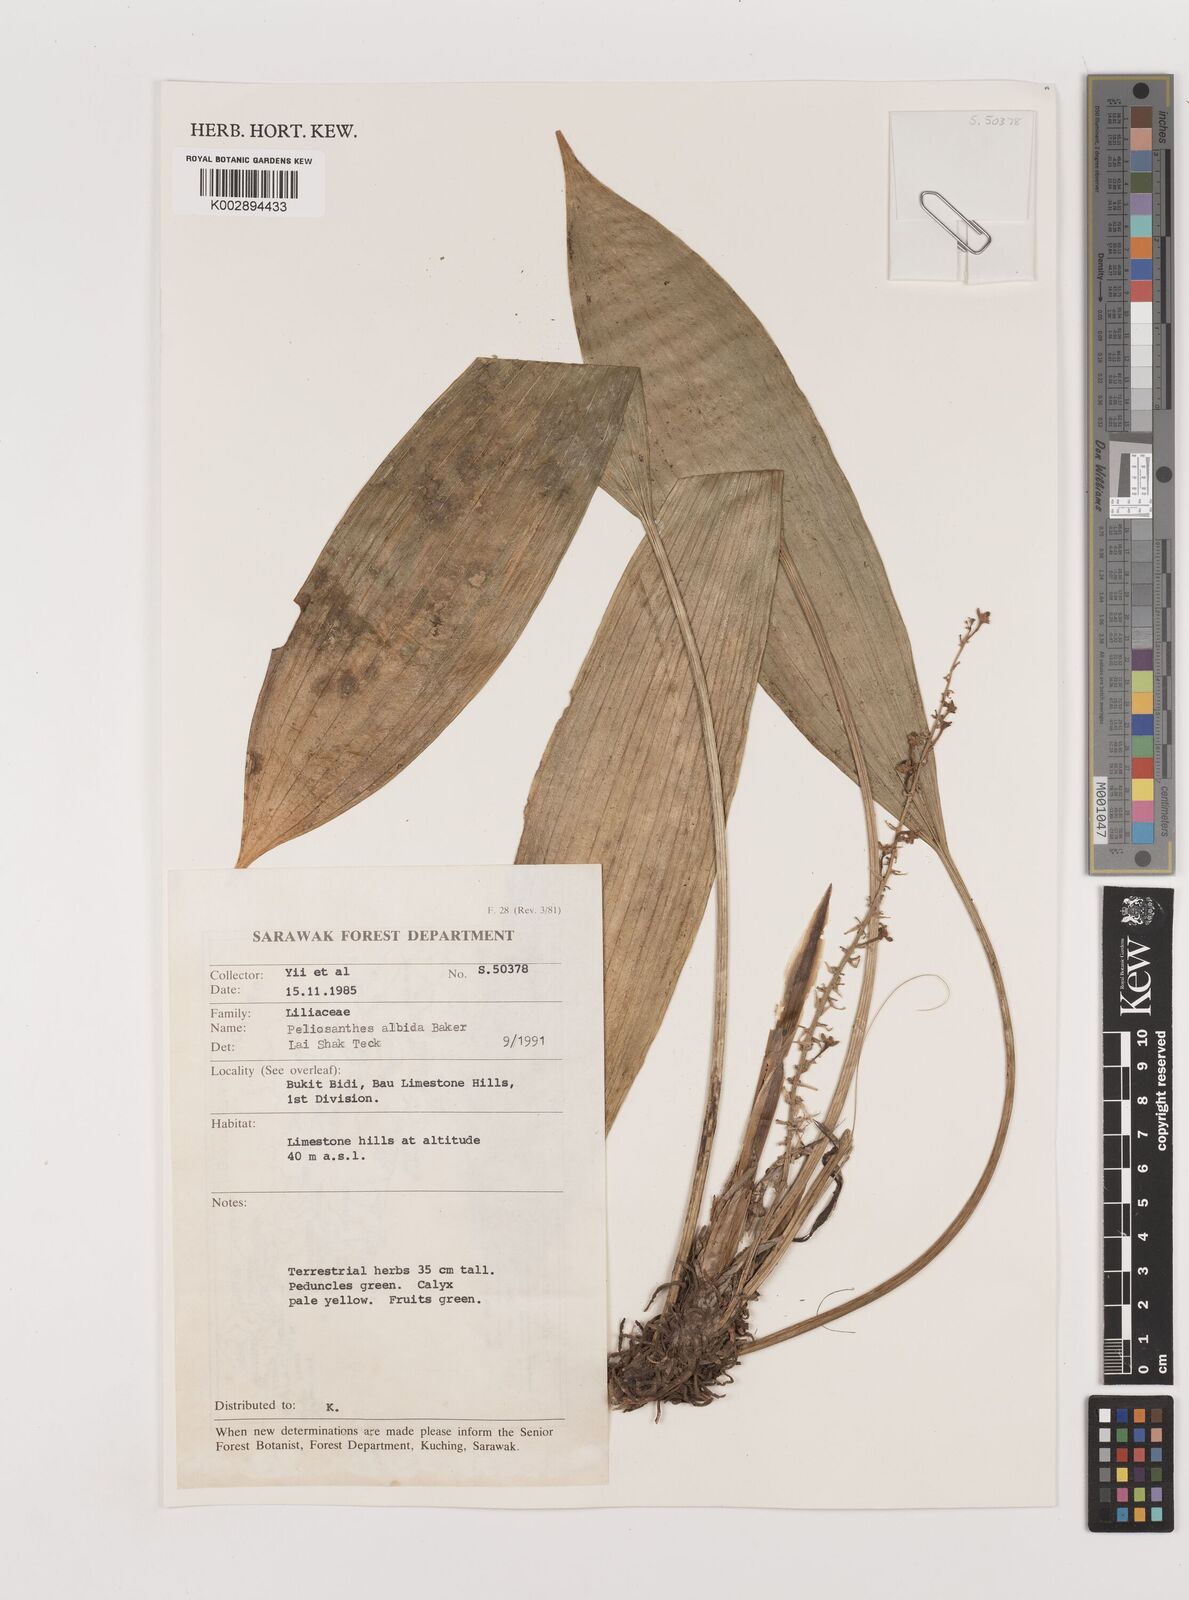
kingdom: Plantae
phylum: Tracheophyta
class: Liliopsida
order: Asparagales
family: Asparagaceae
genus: Peliosanthes
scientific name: Peliosanthes teta
